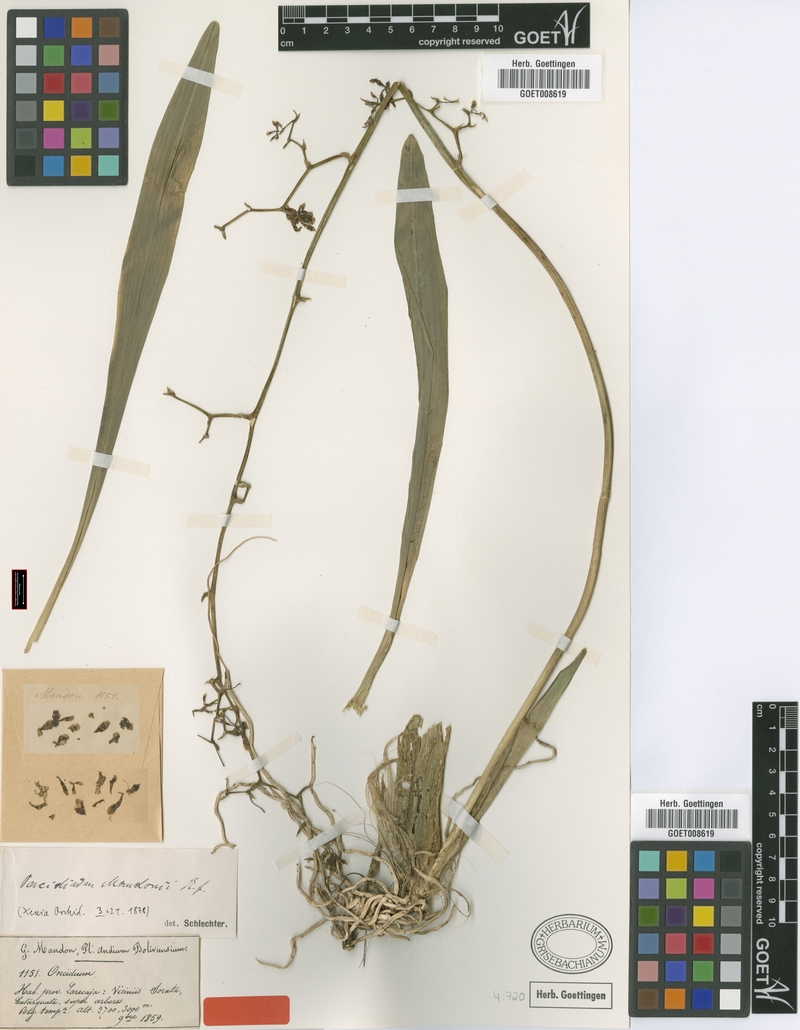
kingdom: Plantae
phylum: Tracheophyta
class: Liliopsida
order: Asparagales
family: Orchidaceae
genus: Gomesa
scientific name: Gomesa ramosa
